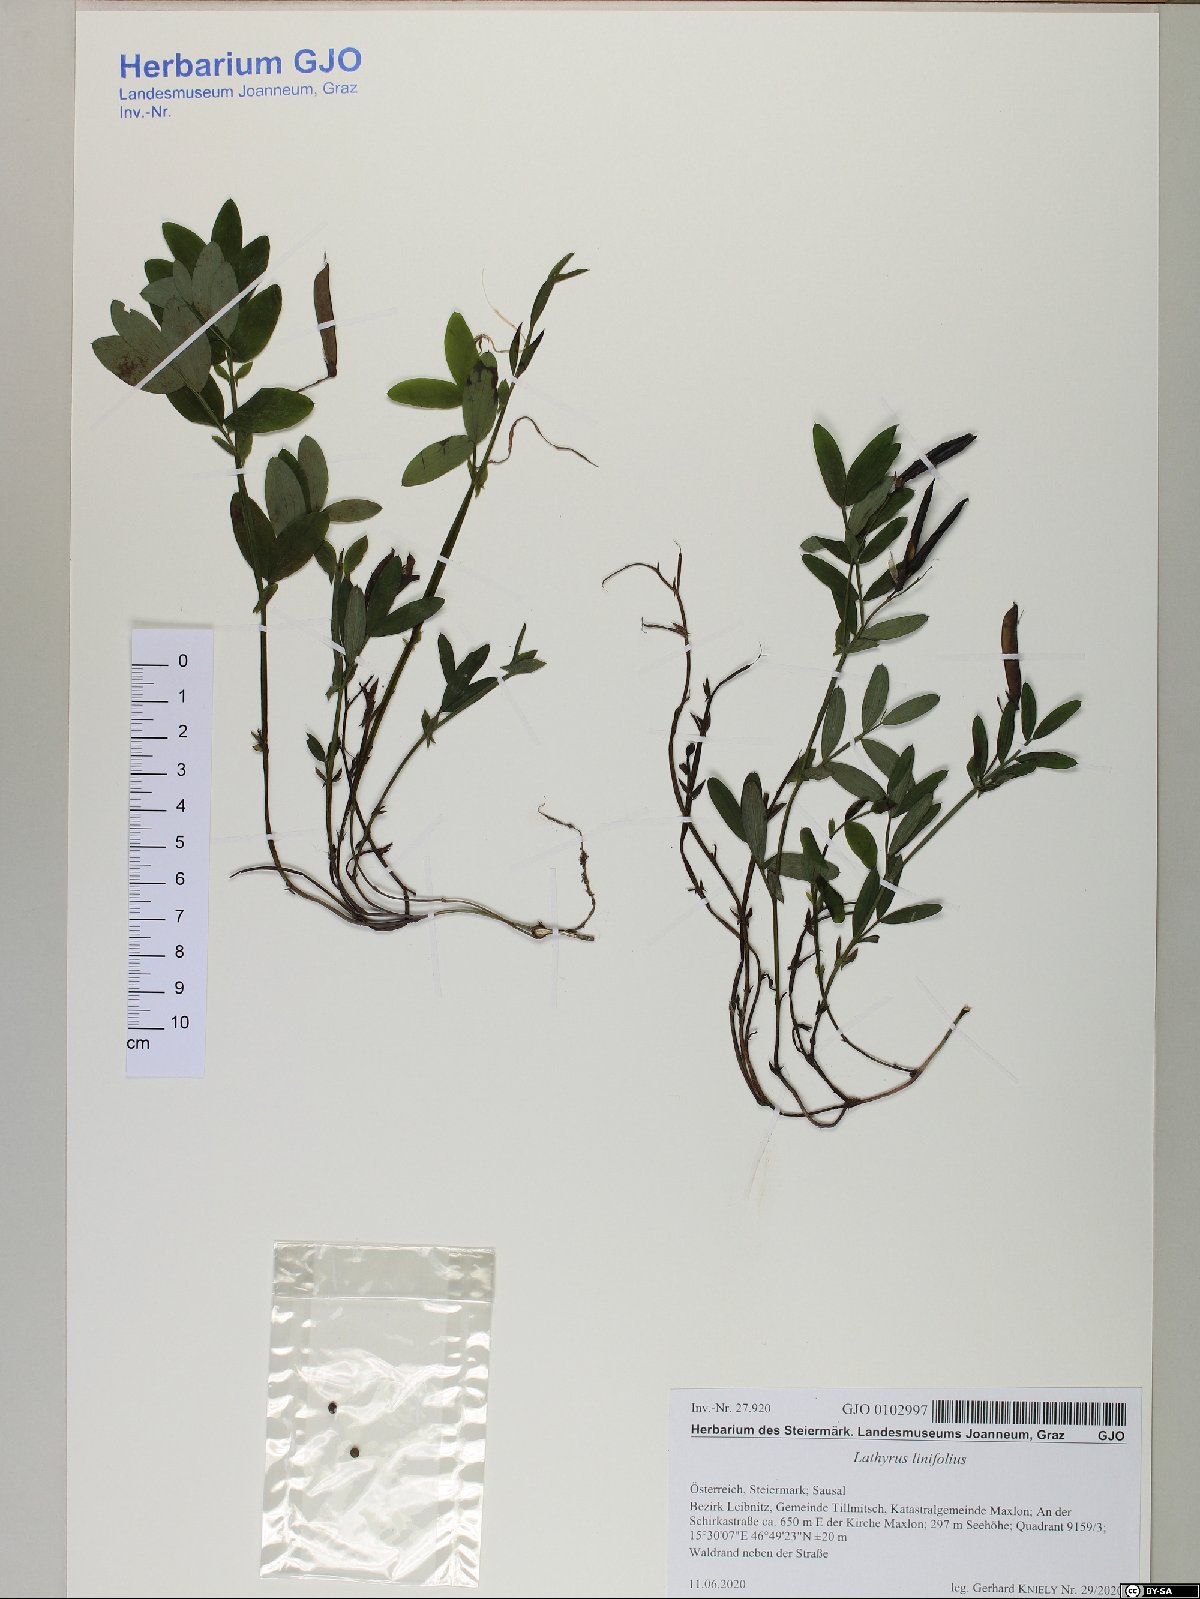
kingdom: Plantae
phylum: Tracheophyta
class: Magnoliopsida
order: Fabales
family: Fabaceae
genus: Lathyrus
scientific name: Lathyrus linifolius
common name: Bitter-vetch
